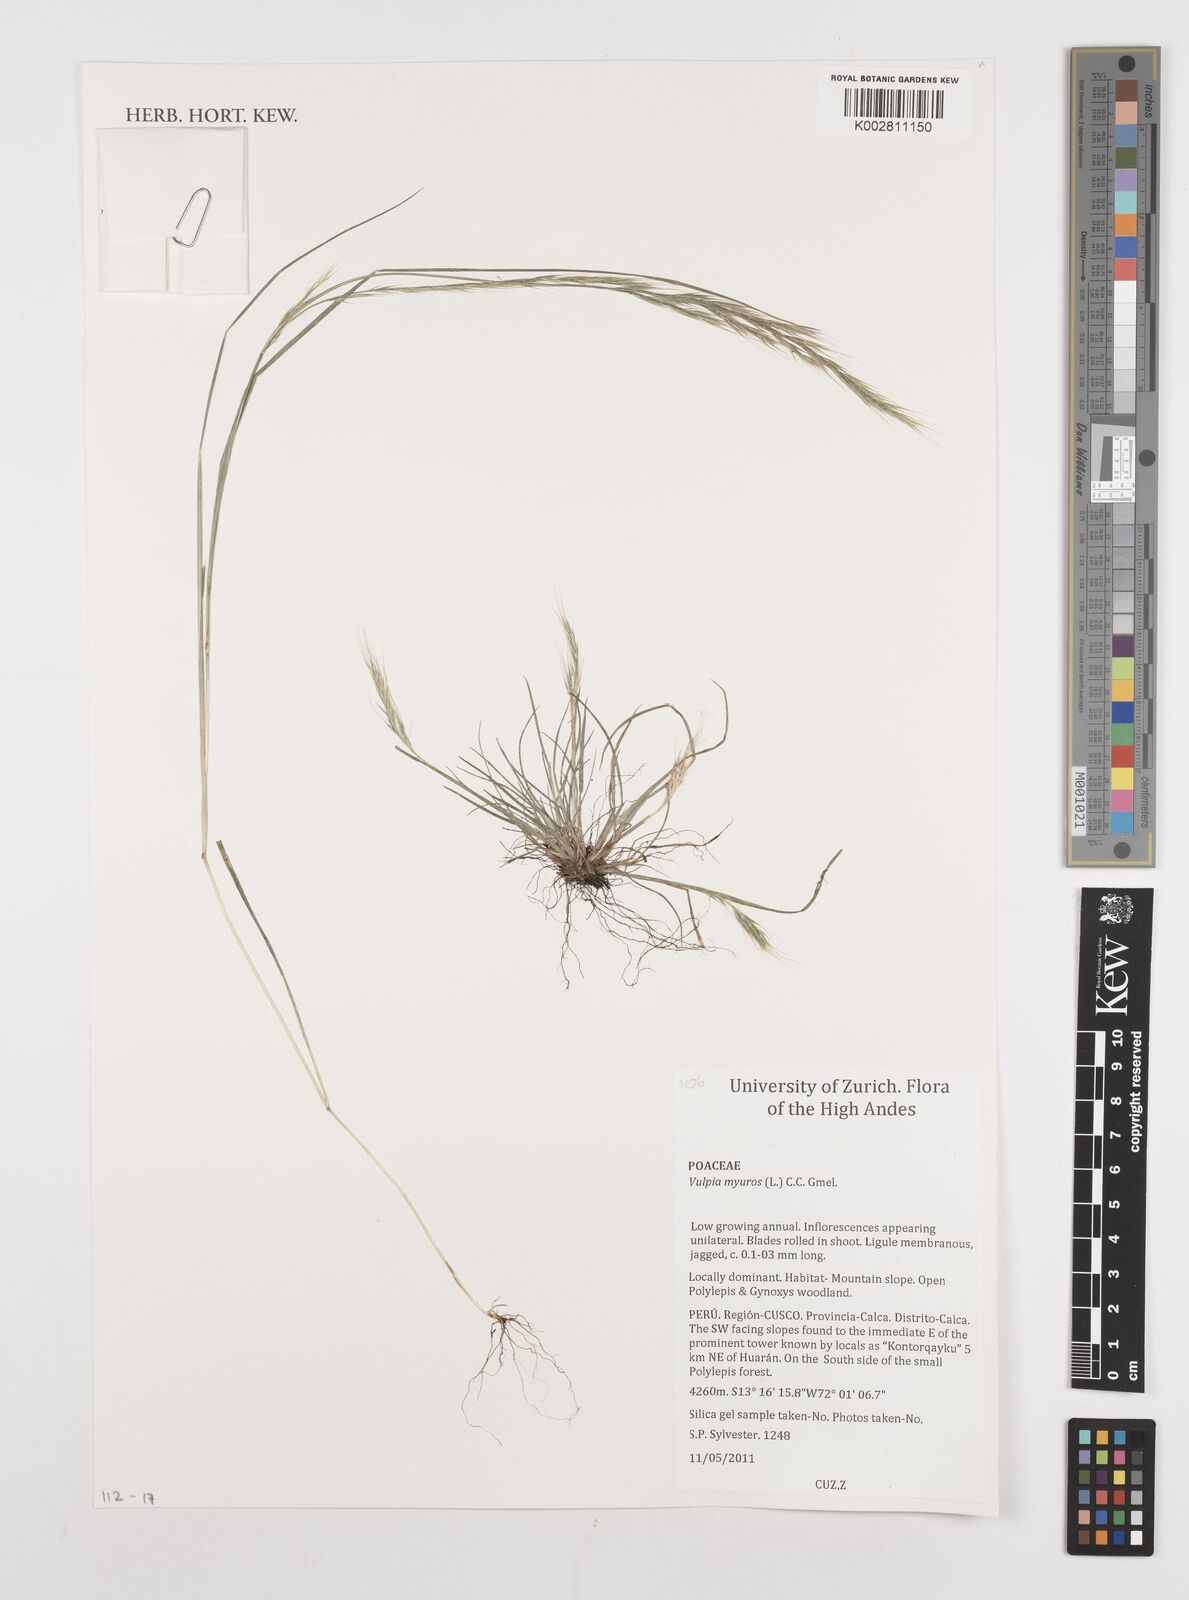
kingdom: Plantae
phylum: Tracheophyta
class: Liliopsida
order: Poales
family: Poaceae
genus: Festuca
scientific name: Festuca myuros
